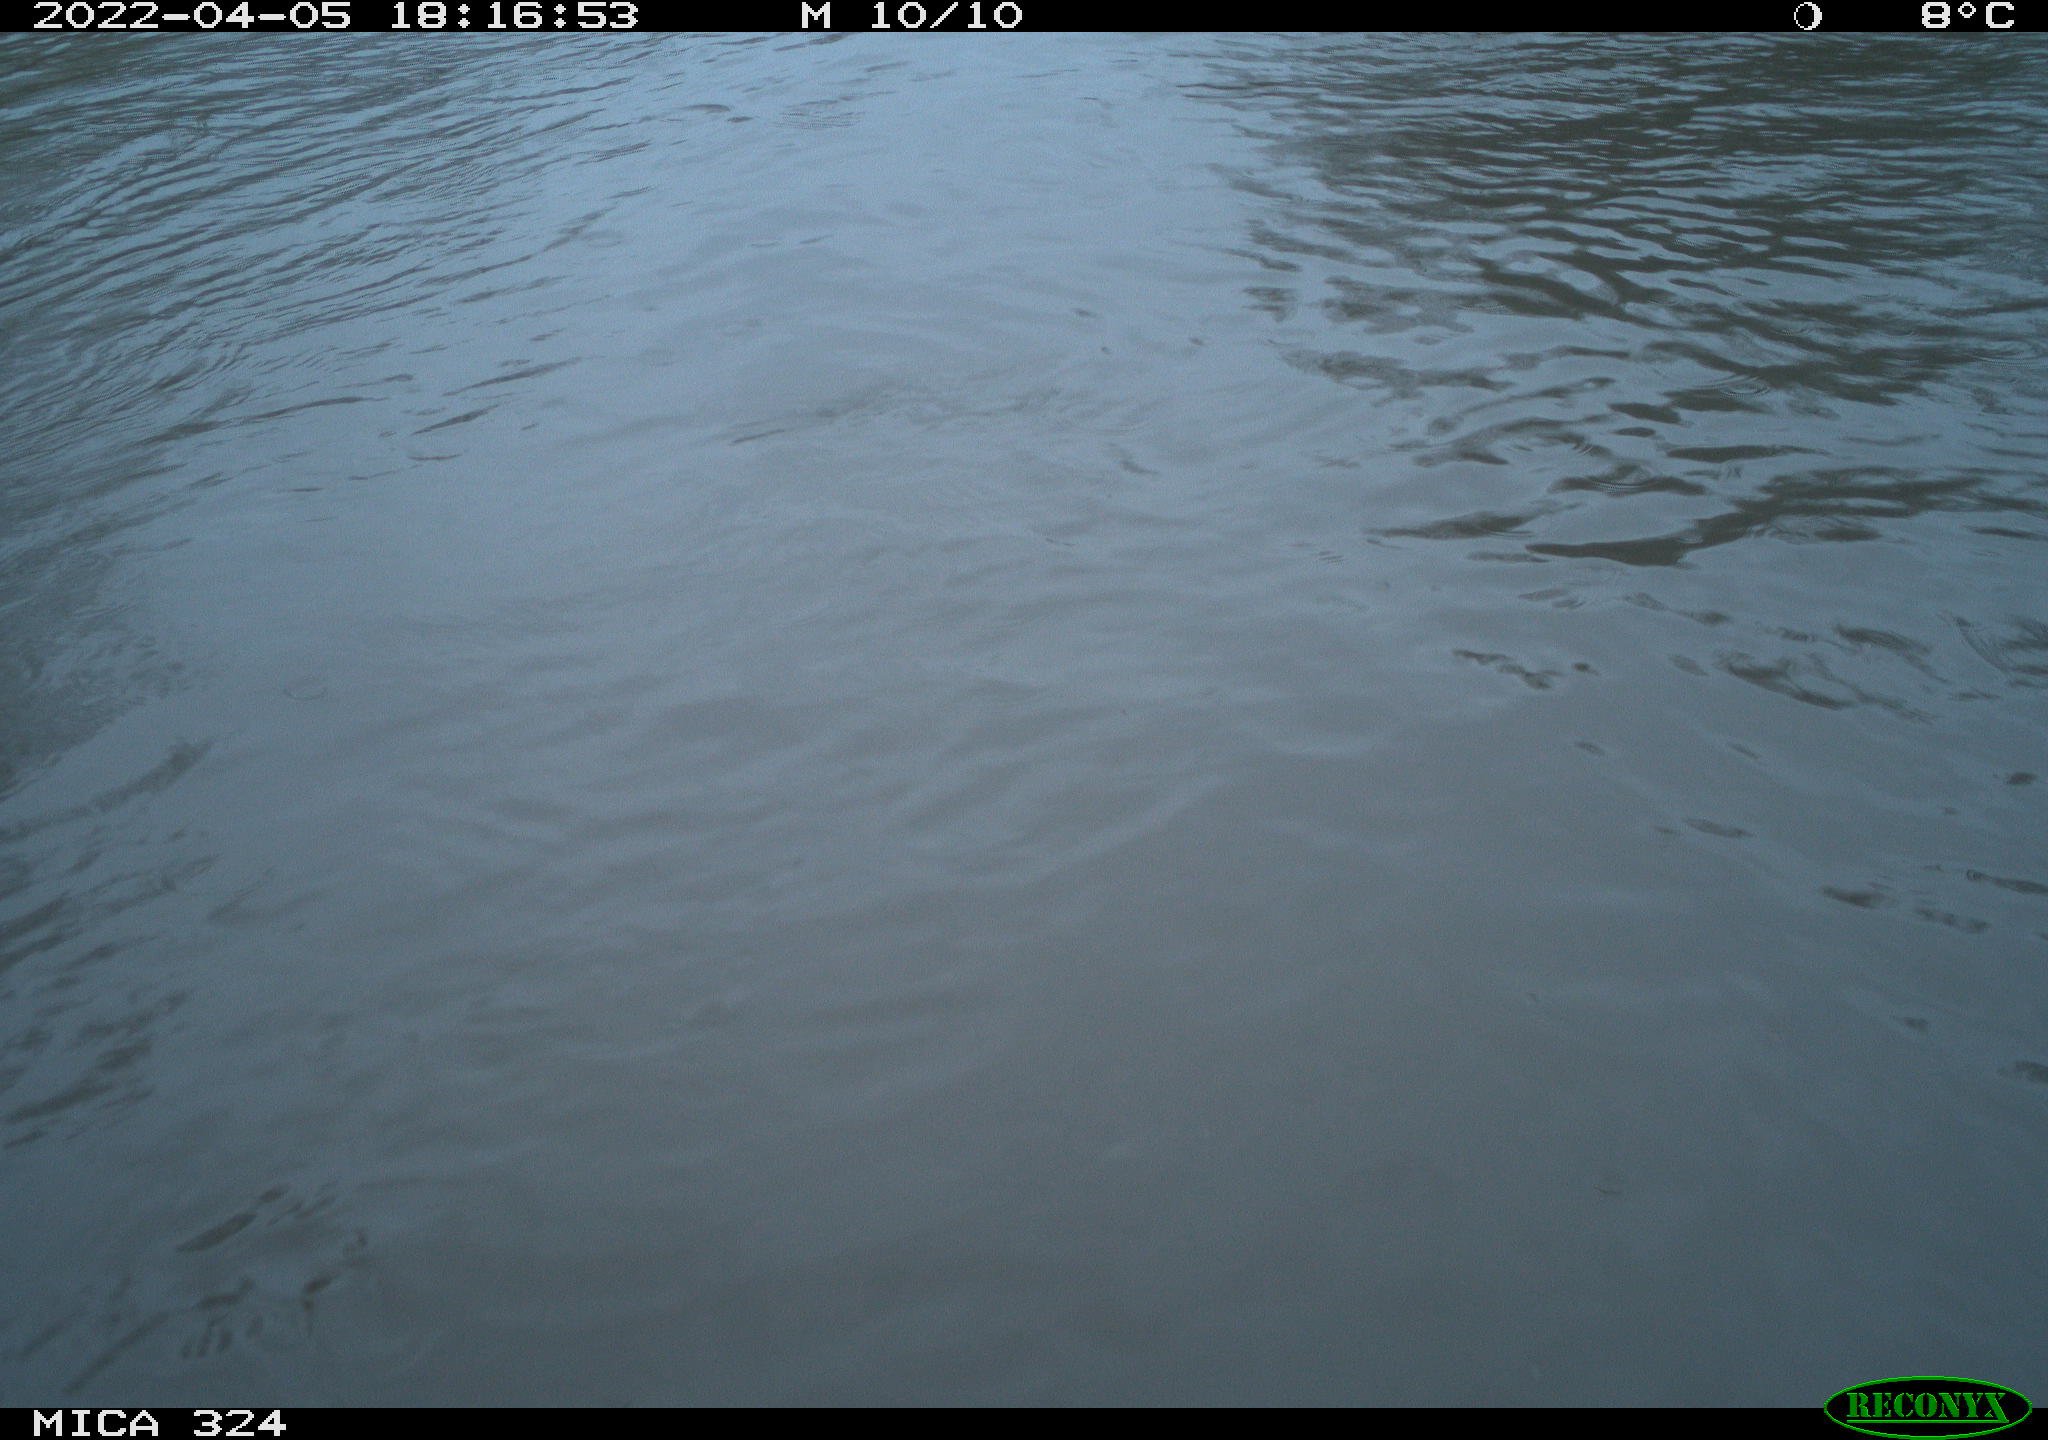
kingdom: Animalia
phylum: Chordata
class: Mammalia
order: Rodentia
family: Cricetidae
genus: Ondatra
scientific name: Ondatra zibethicus
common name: Muskrat
